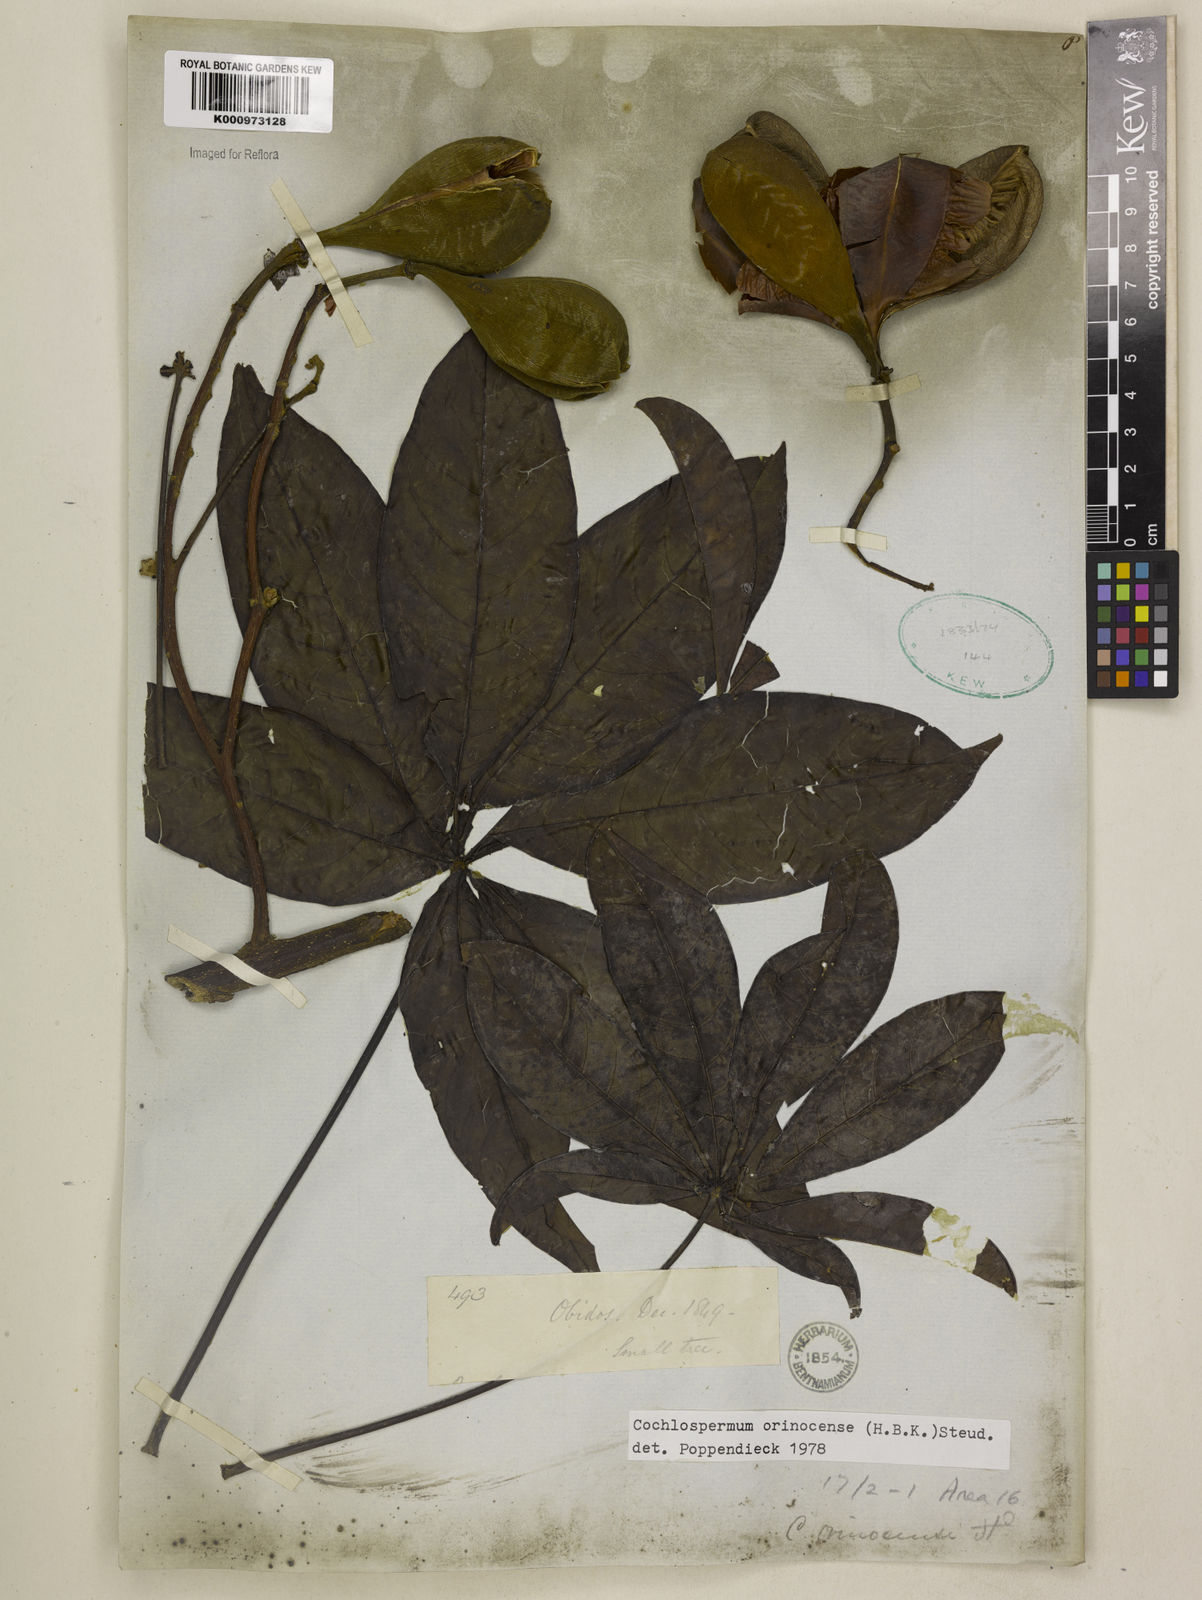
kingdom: Plantae
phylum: Tracheophyta
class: Magnoliopsida
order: Malvales
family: Cochlospermaceae
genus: Cochlospermum
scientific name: Cochlospermum orinocense
